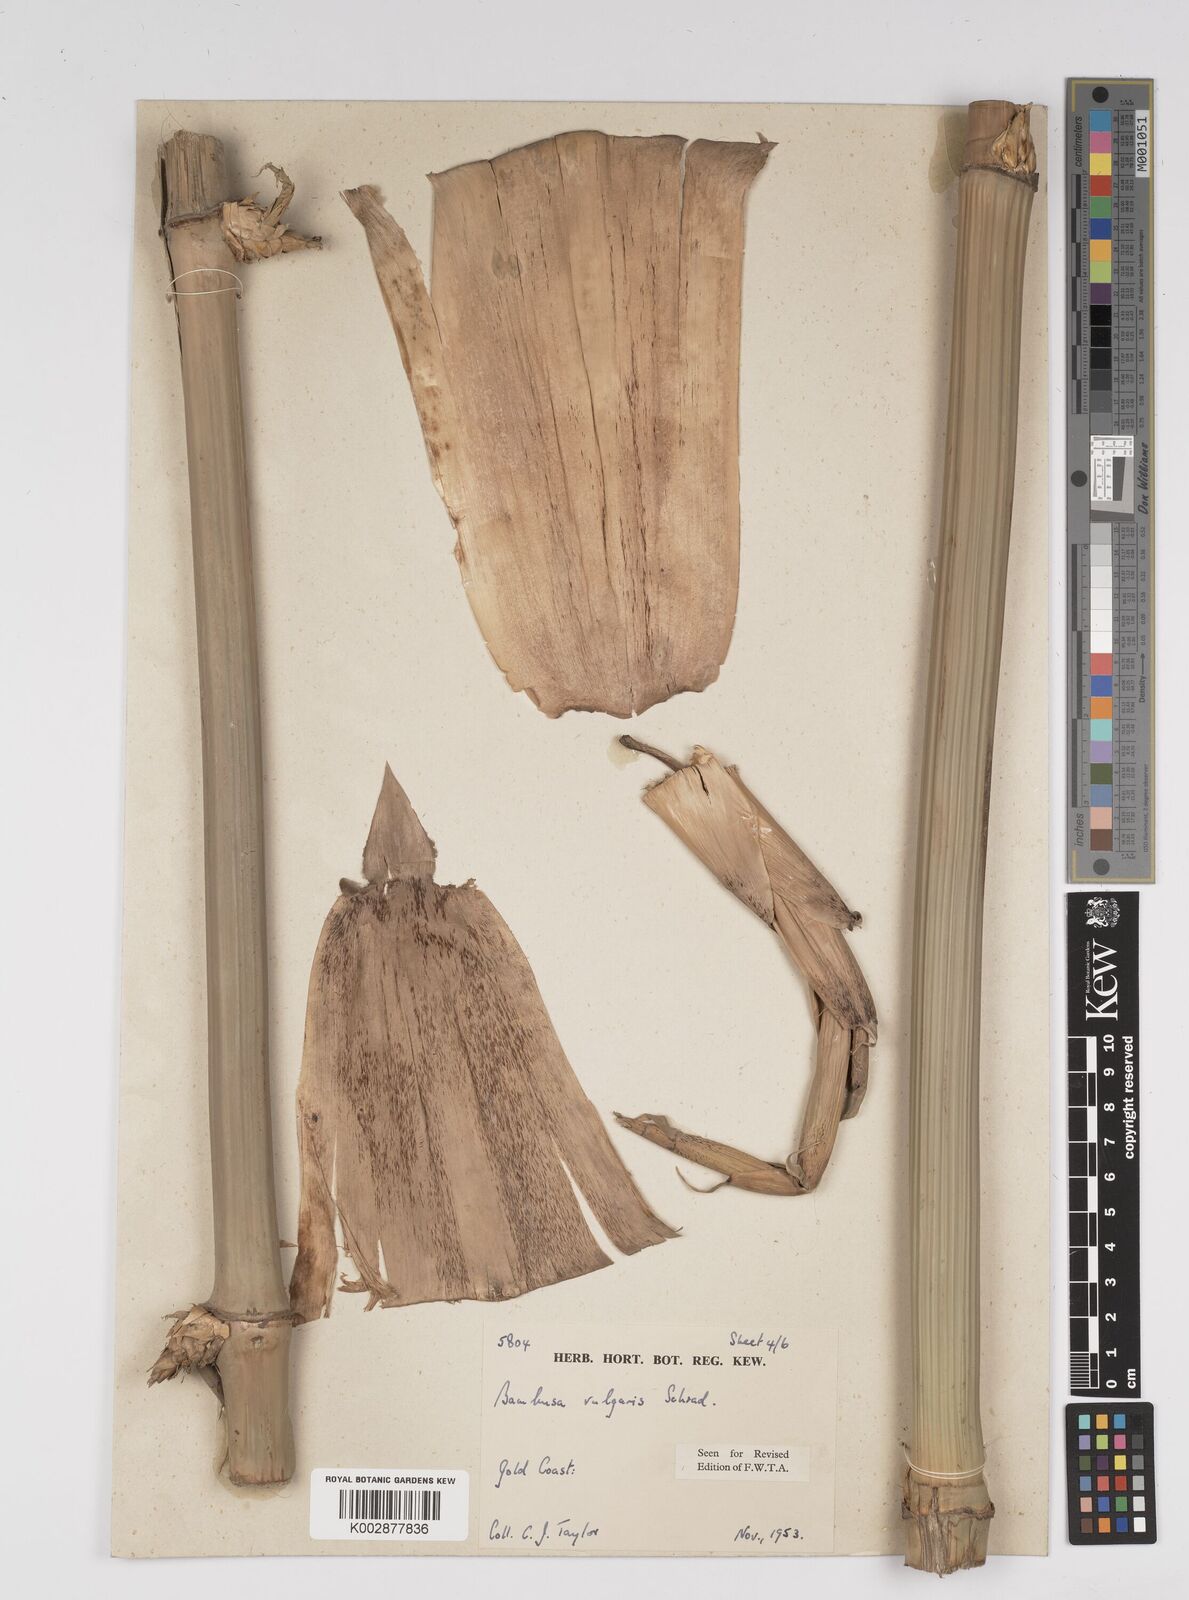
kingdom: Plantae
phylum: Tracheophyta
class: Liliopsida
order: Poales
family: Poaceae
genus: Bambusa
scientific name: Bambusa vulgaris
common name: Common bamboo
